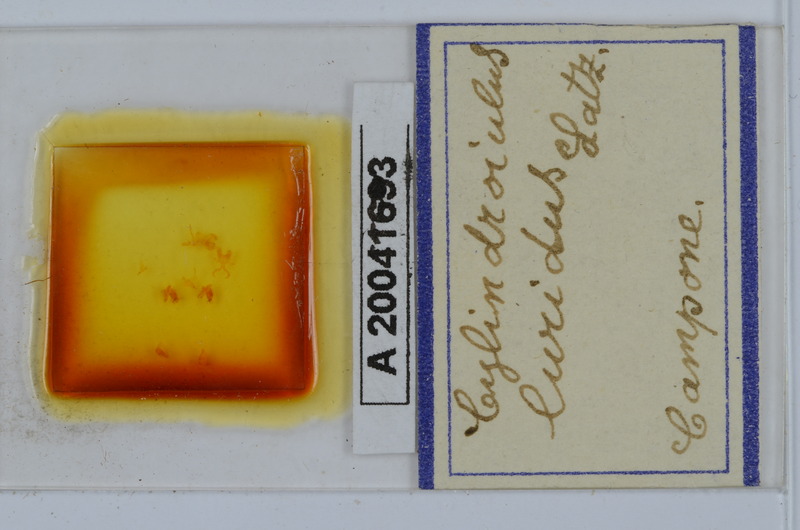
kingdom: Animalia
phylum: Arthropoda
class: Diplopoda
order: Julida
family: Julidae
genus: Cylindroiulus
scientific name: Cylindroiulus luridus
